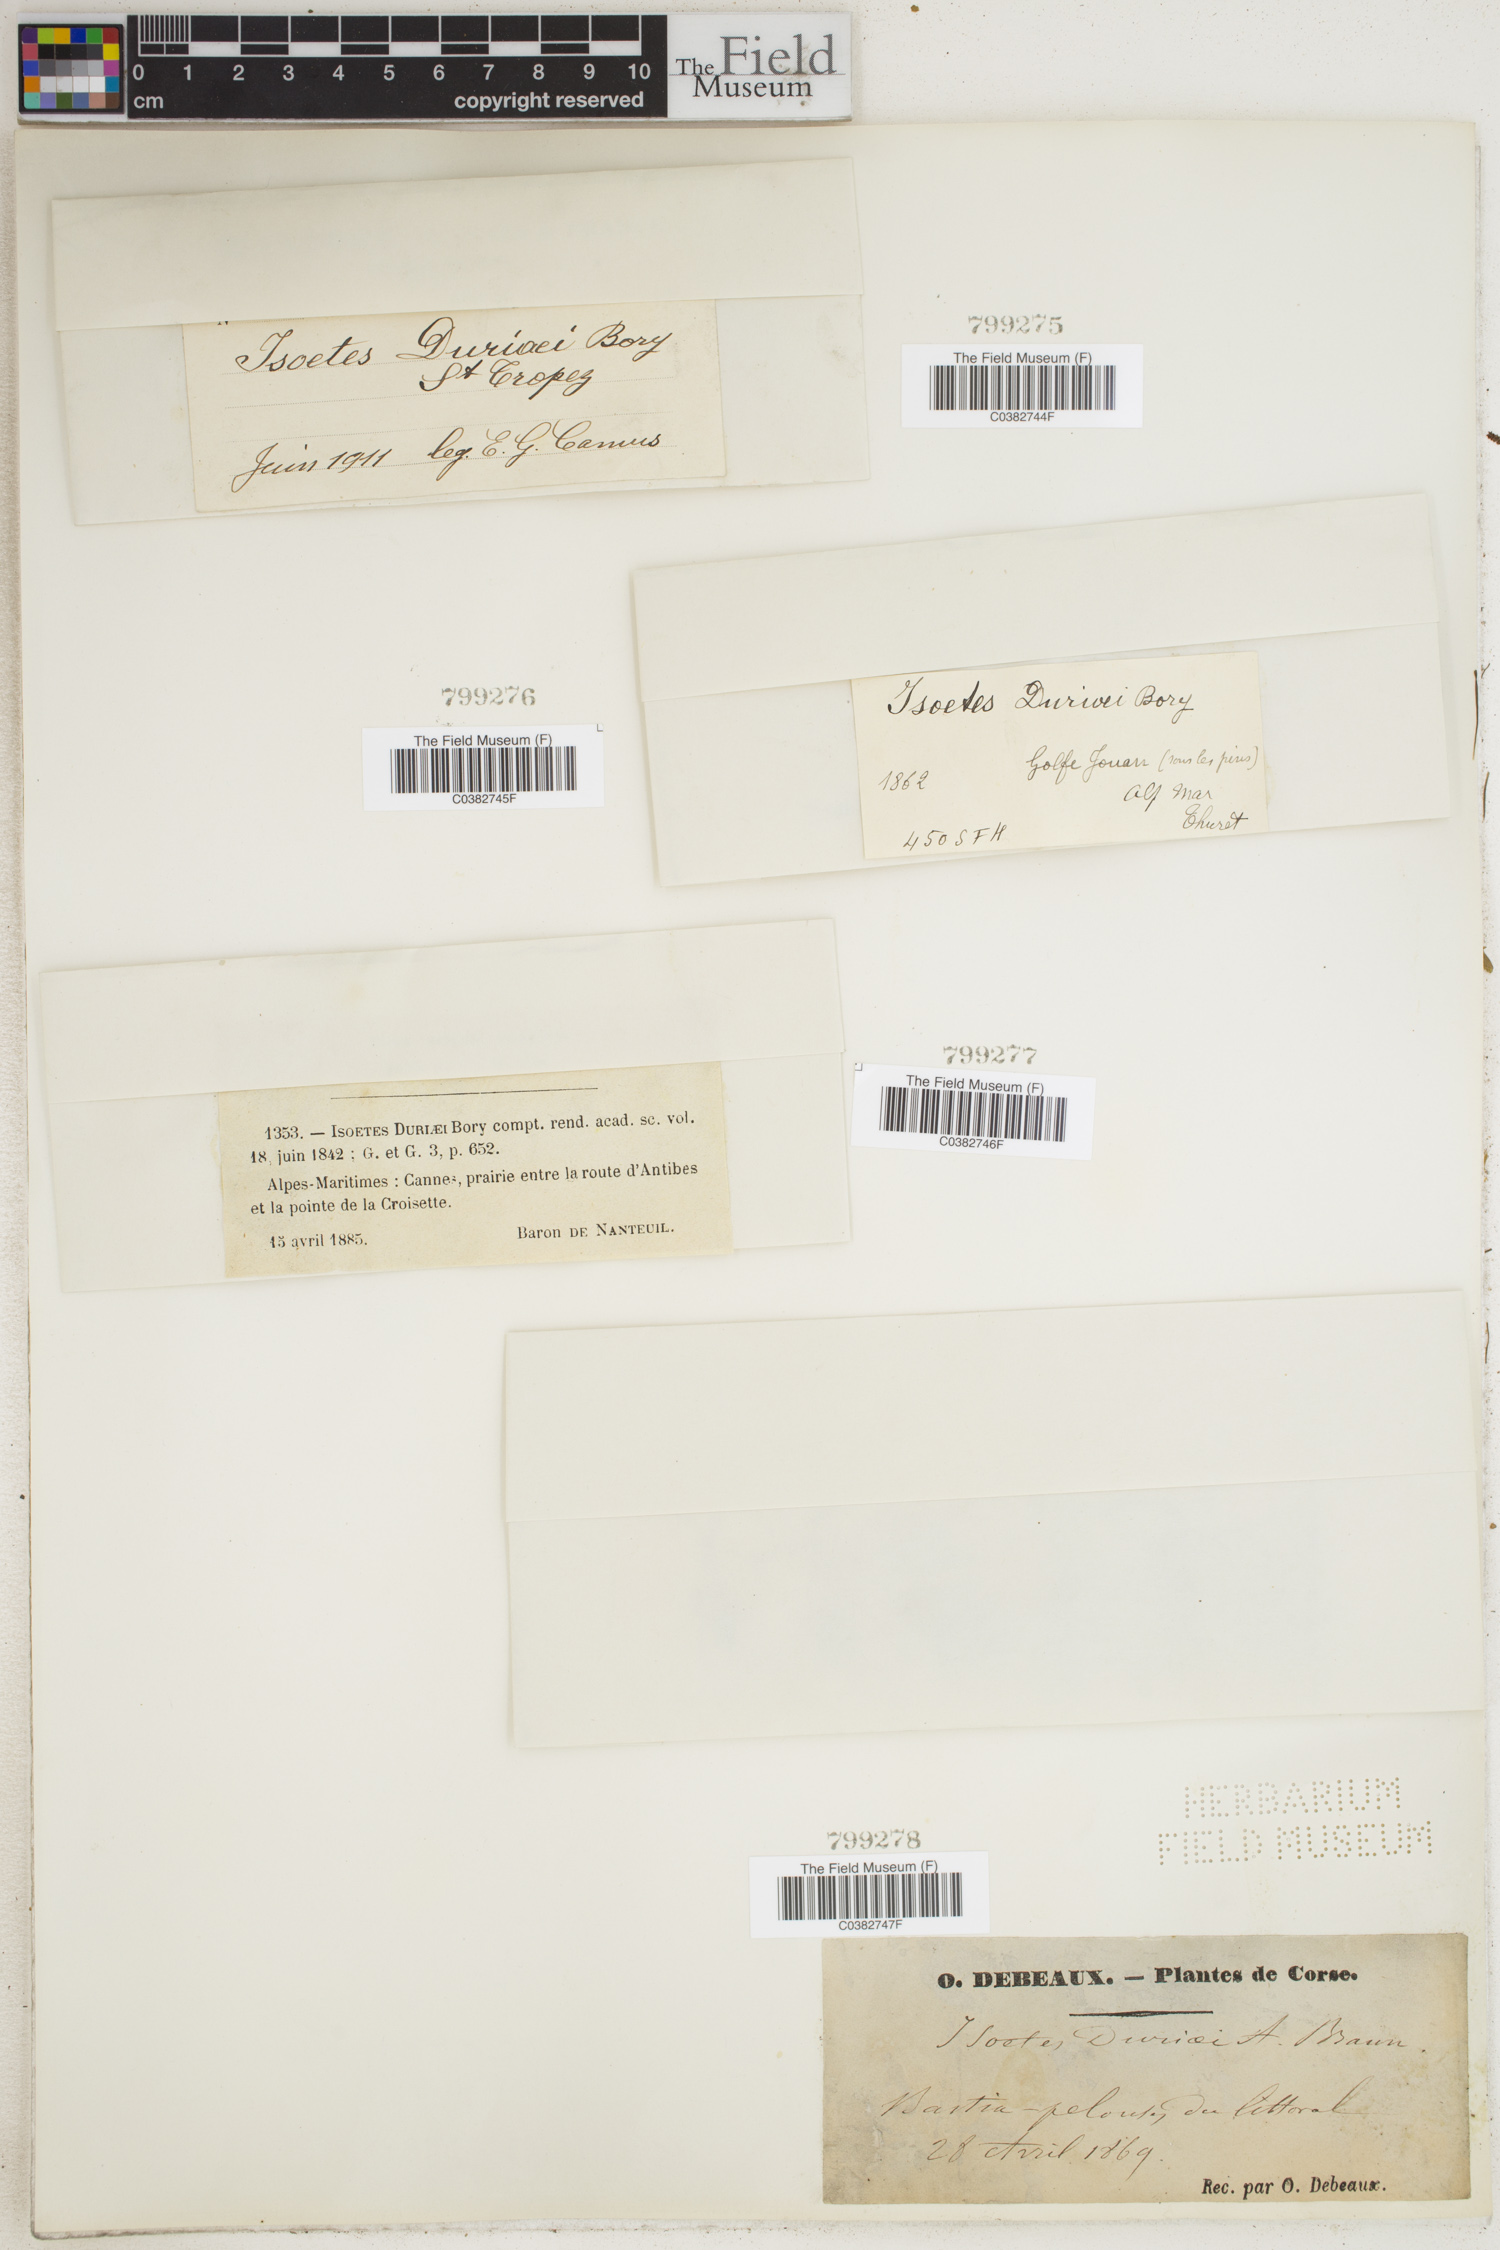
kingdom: Plantae
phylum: Tracheophyta
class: Lycopodiopsida
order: Isoetales
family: Isoetaceae
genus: Isoetes
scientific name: Isoetes duriei
